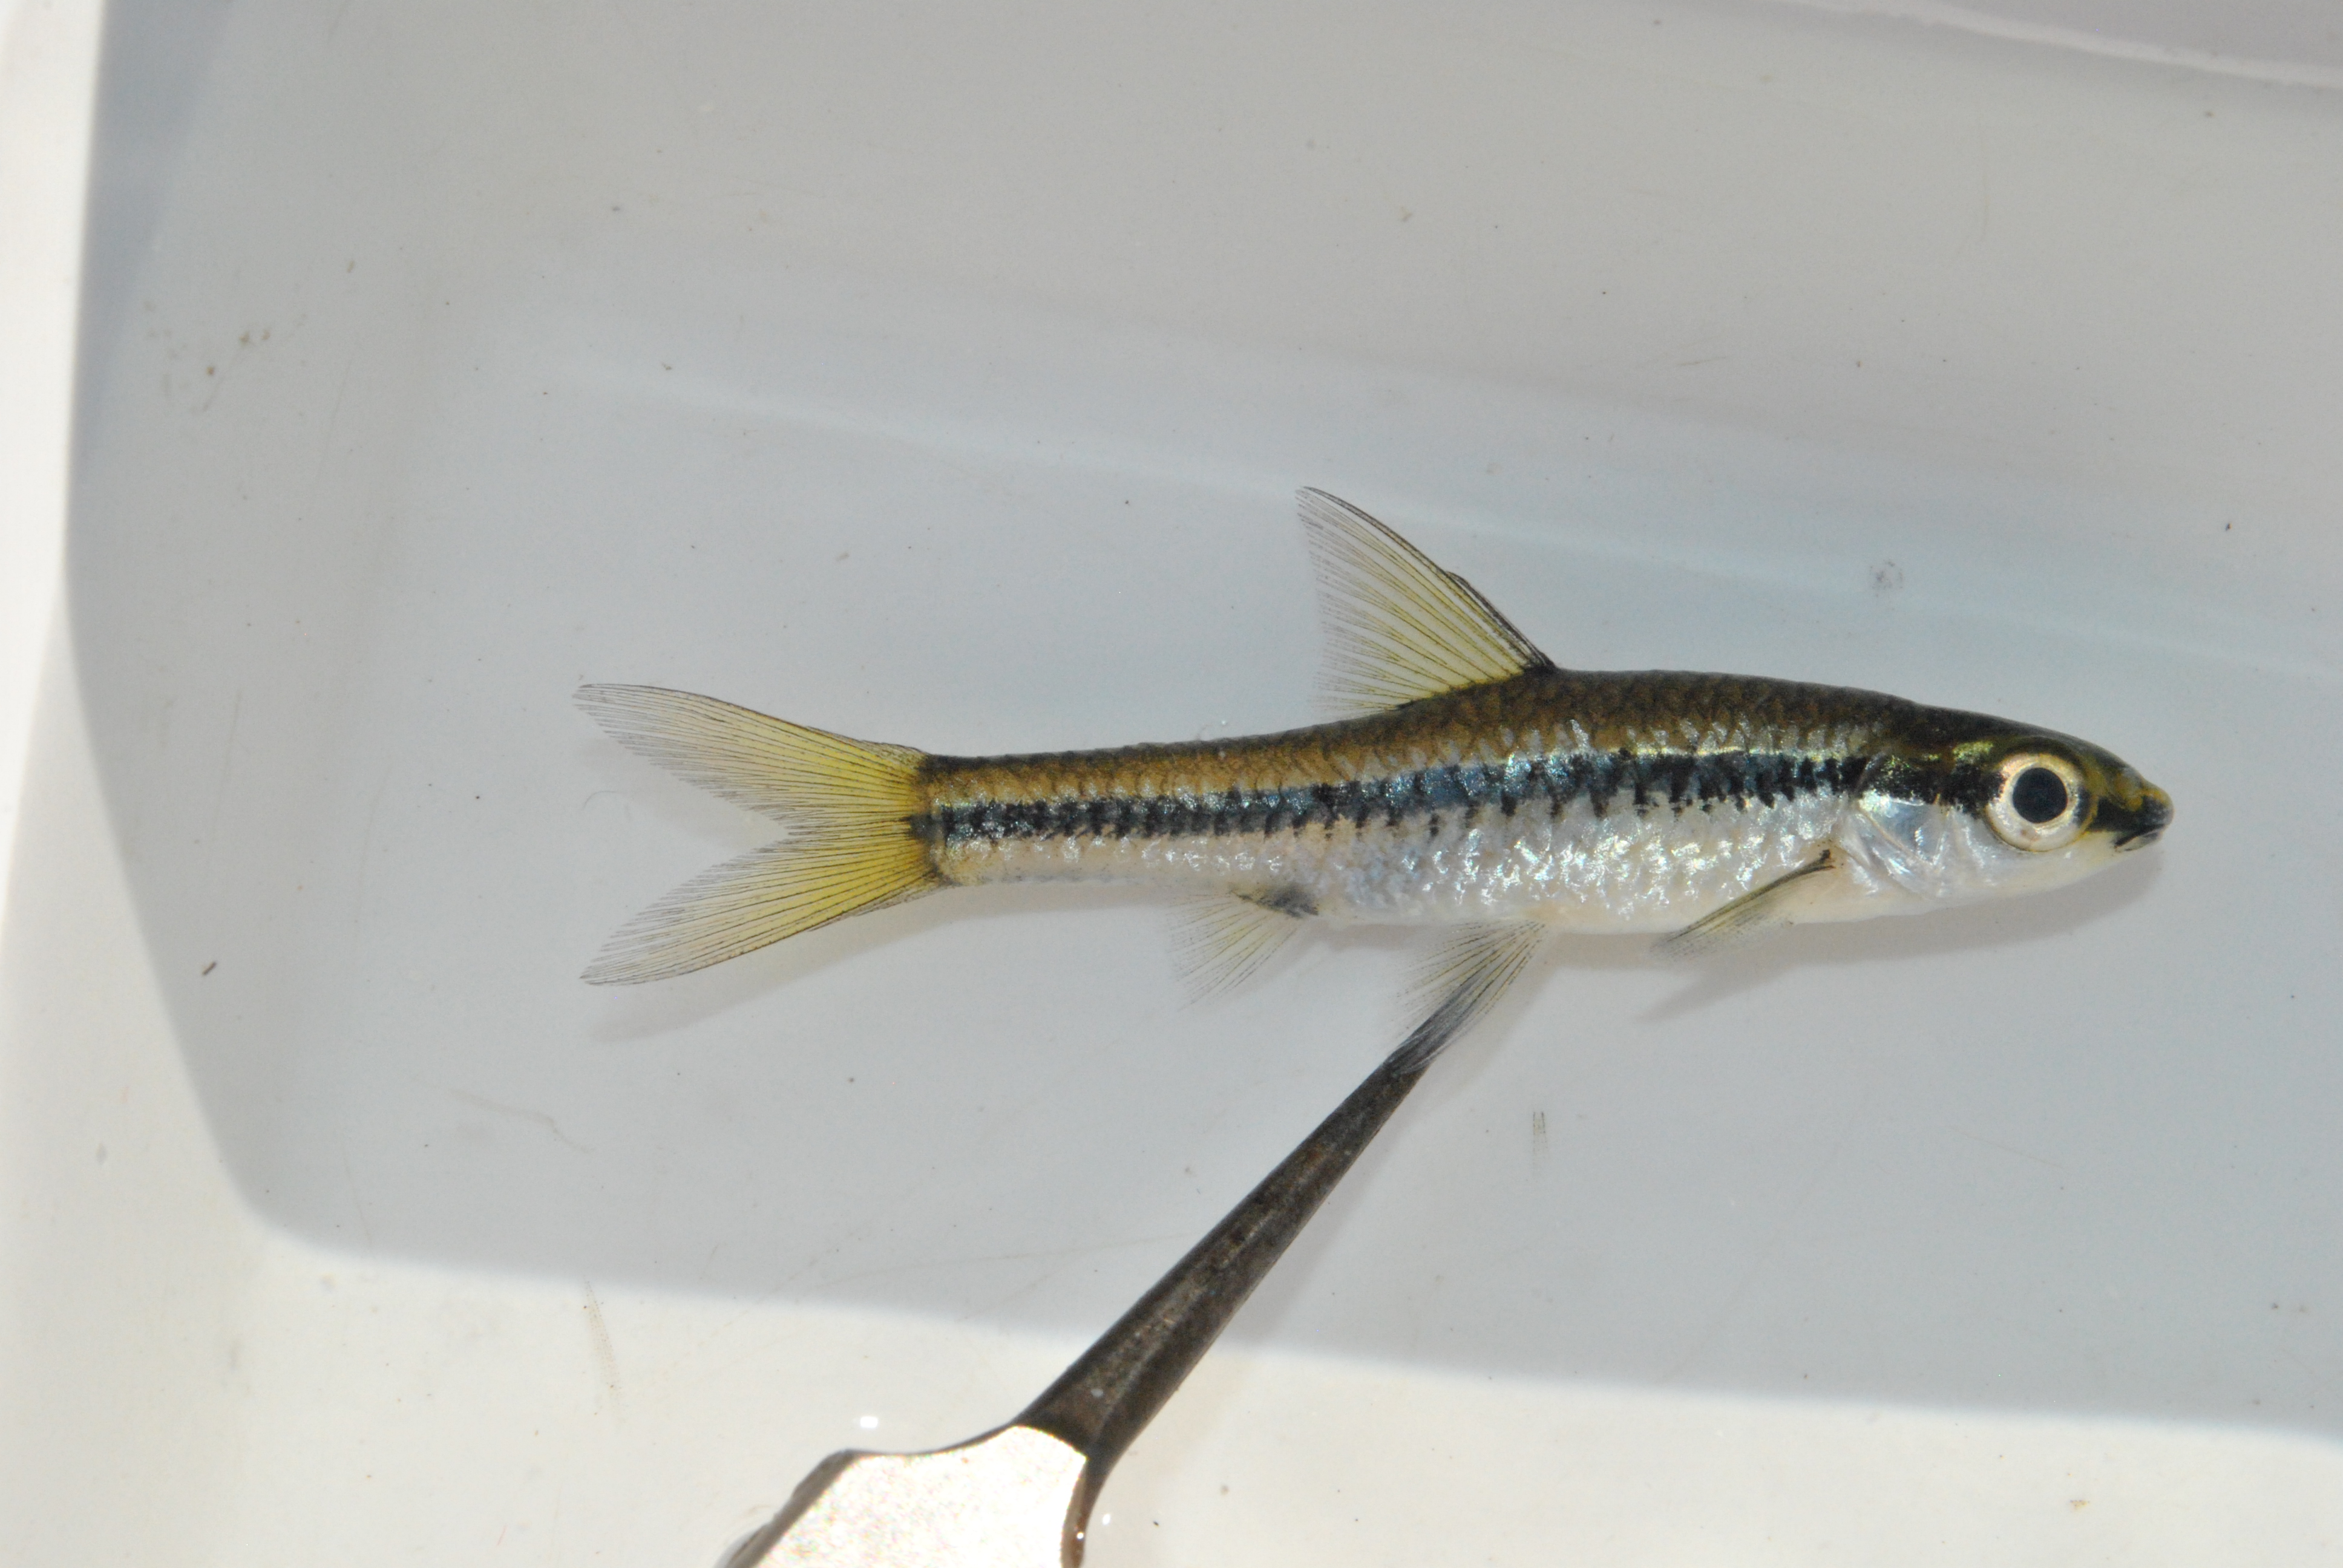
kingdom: Animalia
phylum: Chordata
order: Cypriniformes
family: Cyprinidae
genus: Enteromius
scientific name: Enteromius barnardi
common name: Blackback barb
